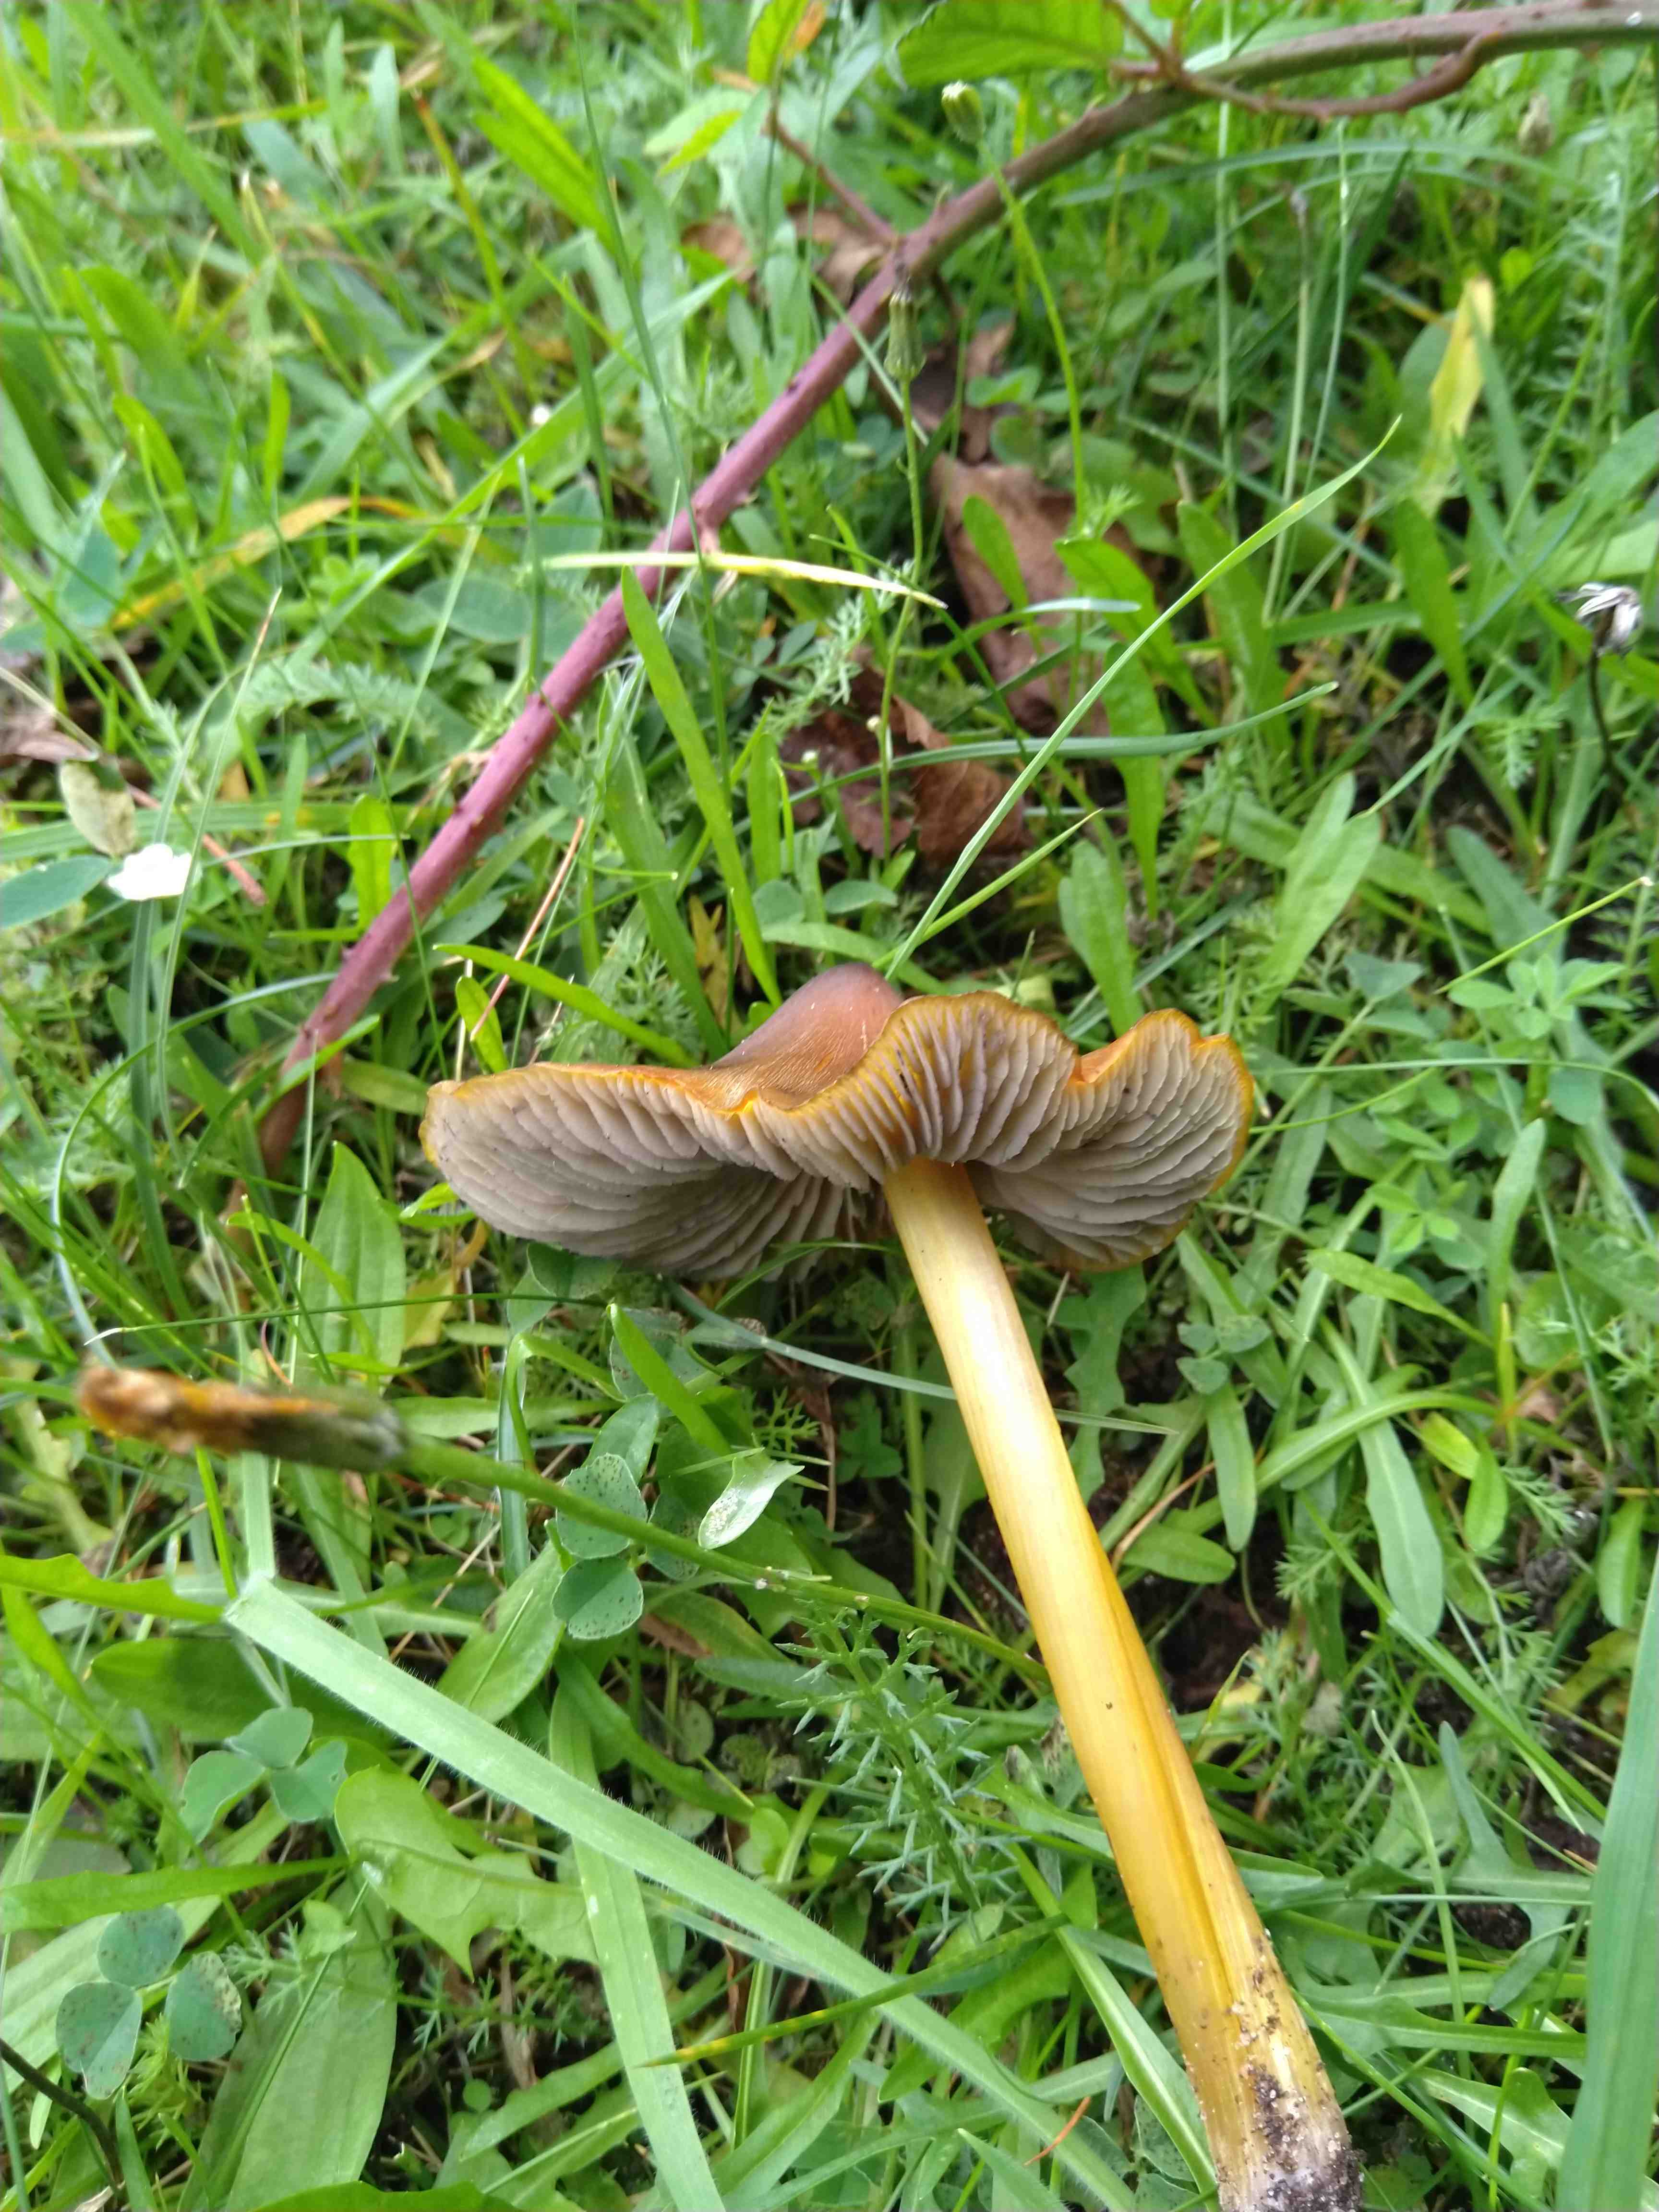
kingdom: Fungi
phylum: Basidiomycota
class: Agaricomycetes
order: Agaricales
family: Hygrophoraceae
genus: Hygrocybe
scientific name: Hygrocybe conica
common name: kegle-vokshat
